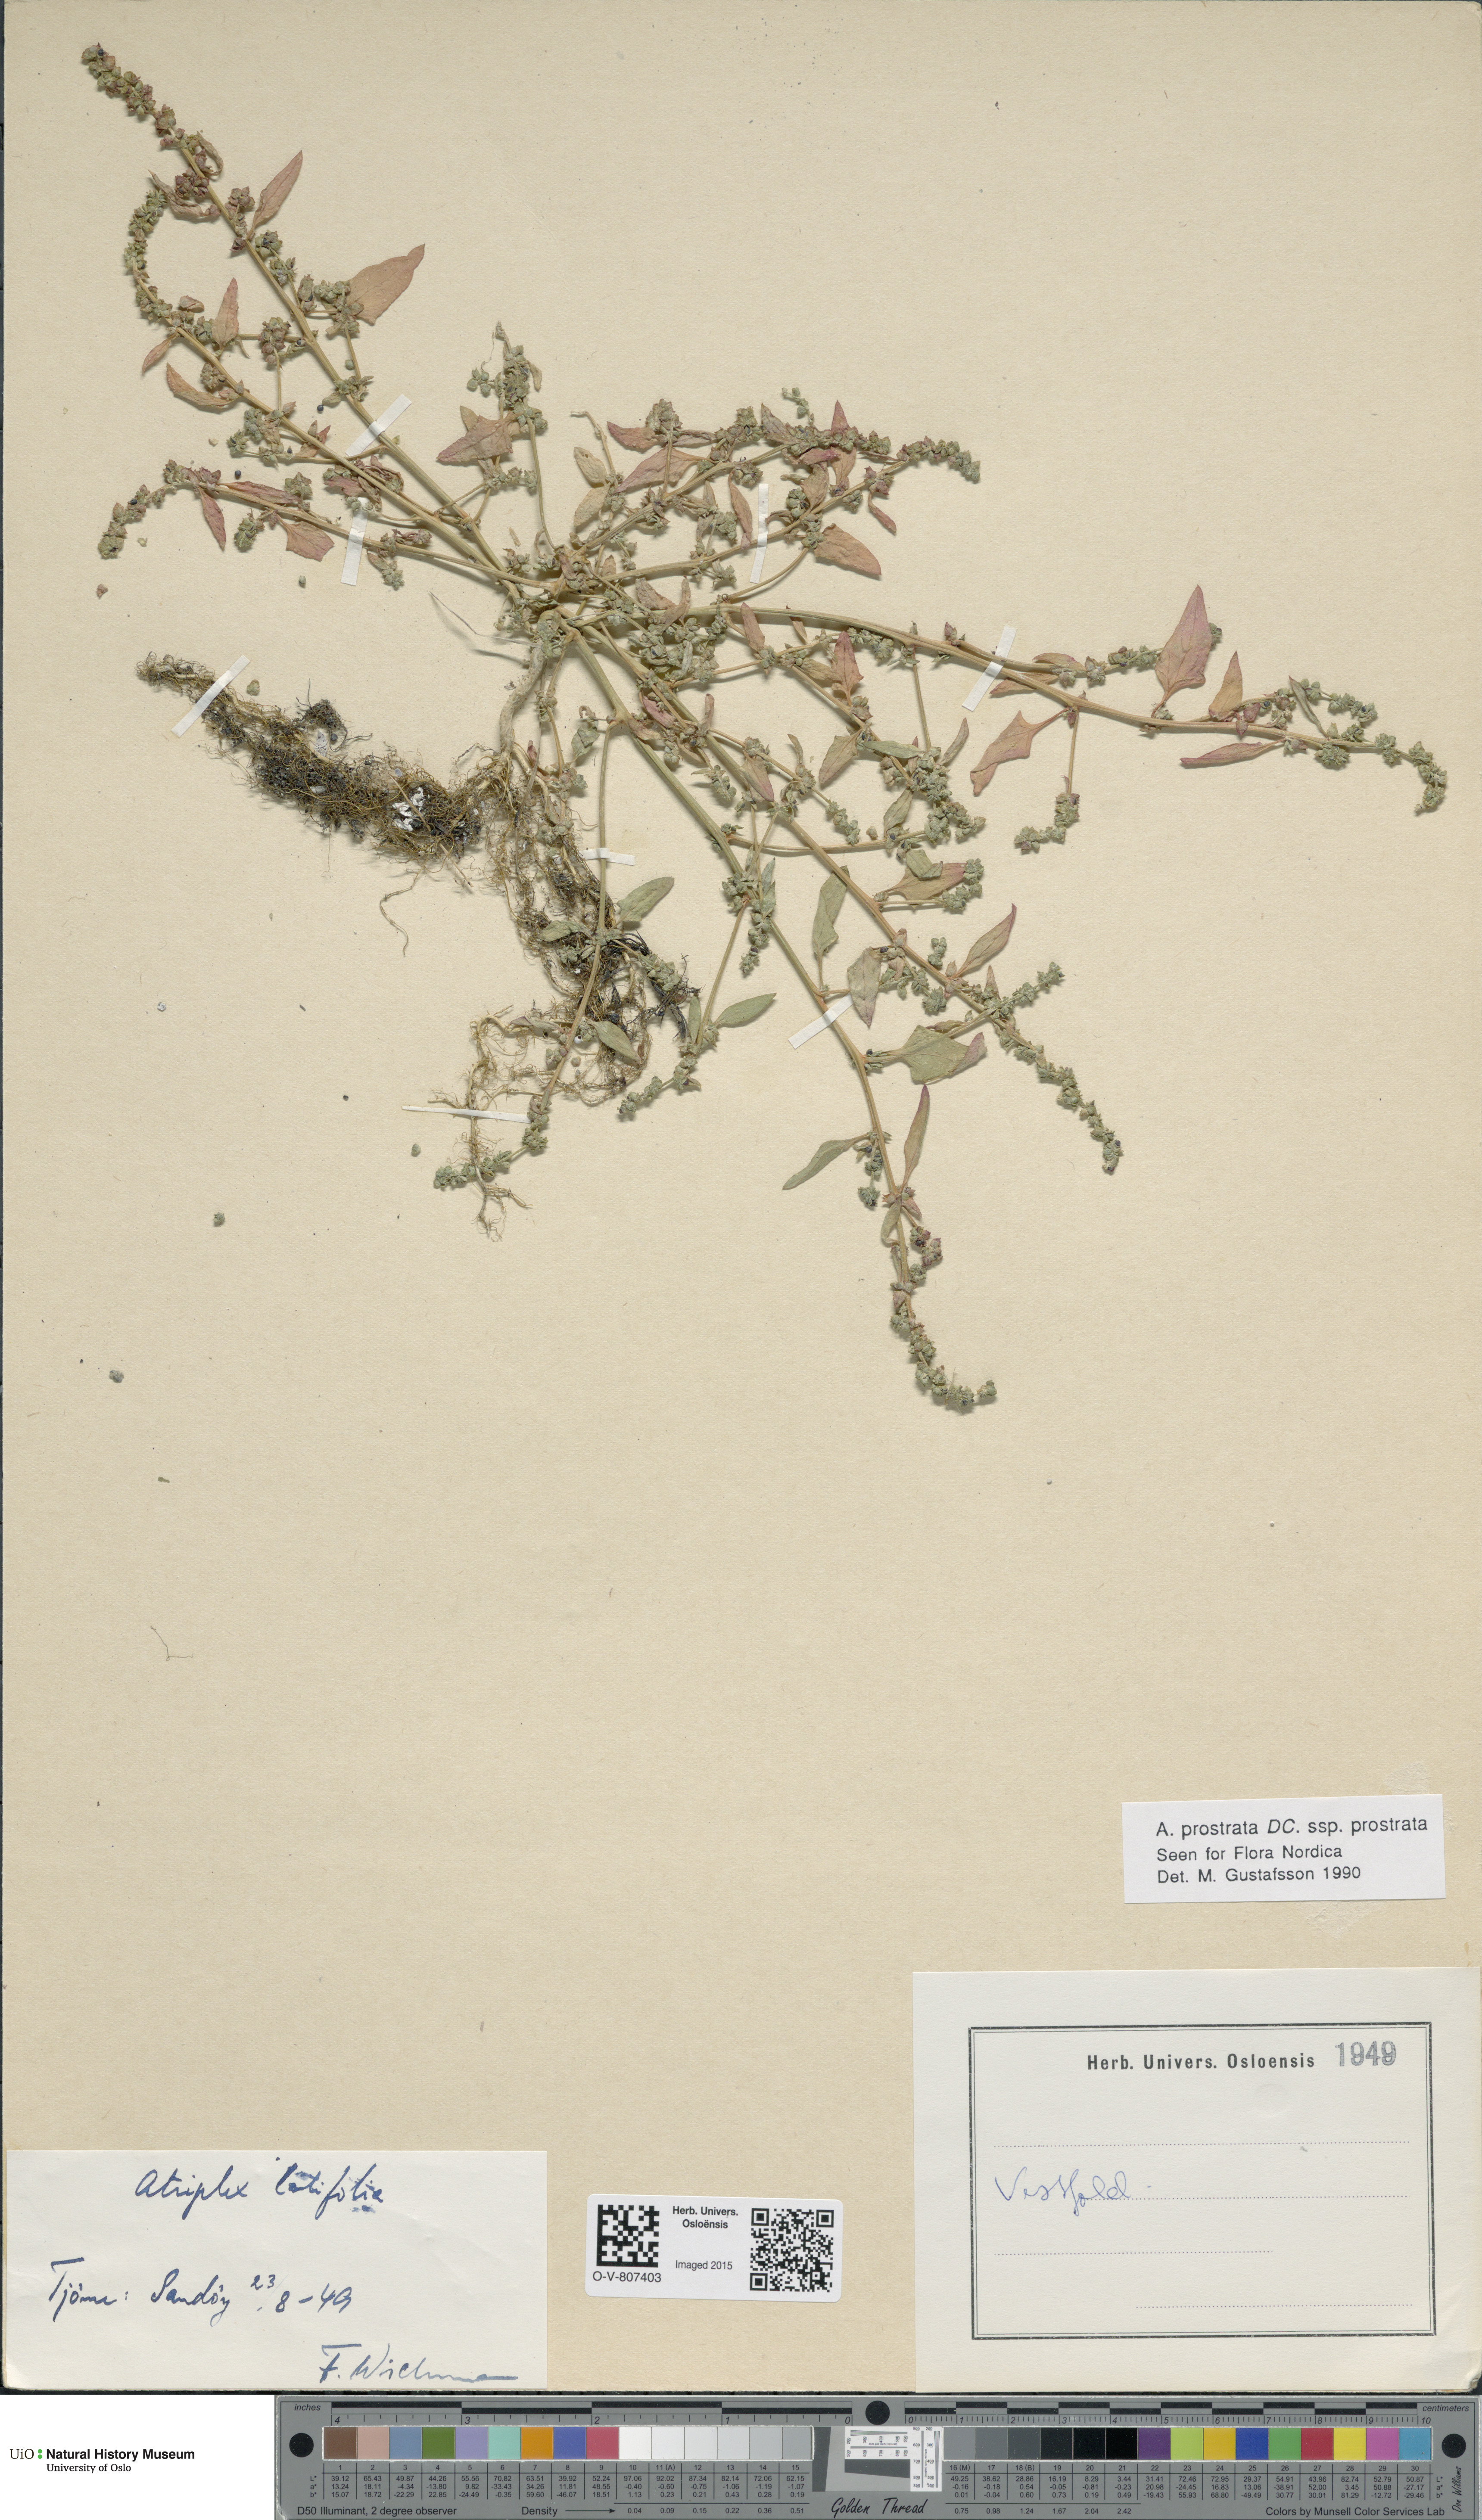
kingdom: Plantae
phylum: Tracheophyta
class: Magnoliopsida
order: Caryophyllales
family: Amaranthaceae
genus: Atriplex
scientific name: Atriplex prostrata
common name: Spear-leaved orache
